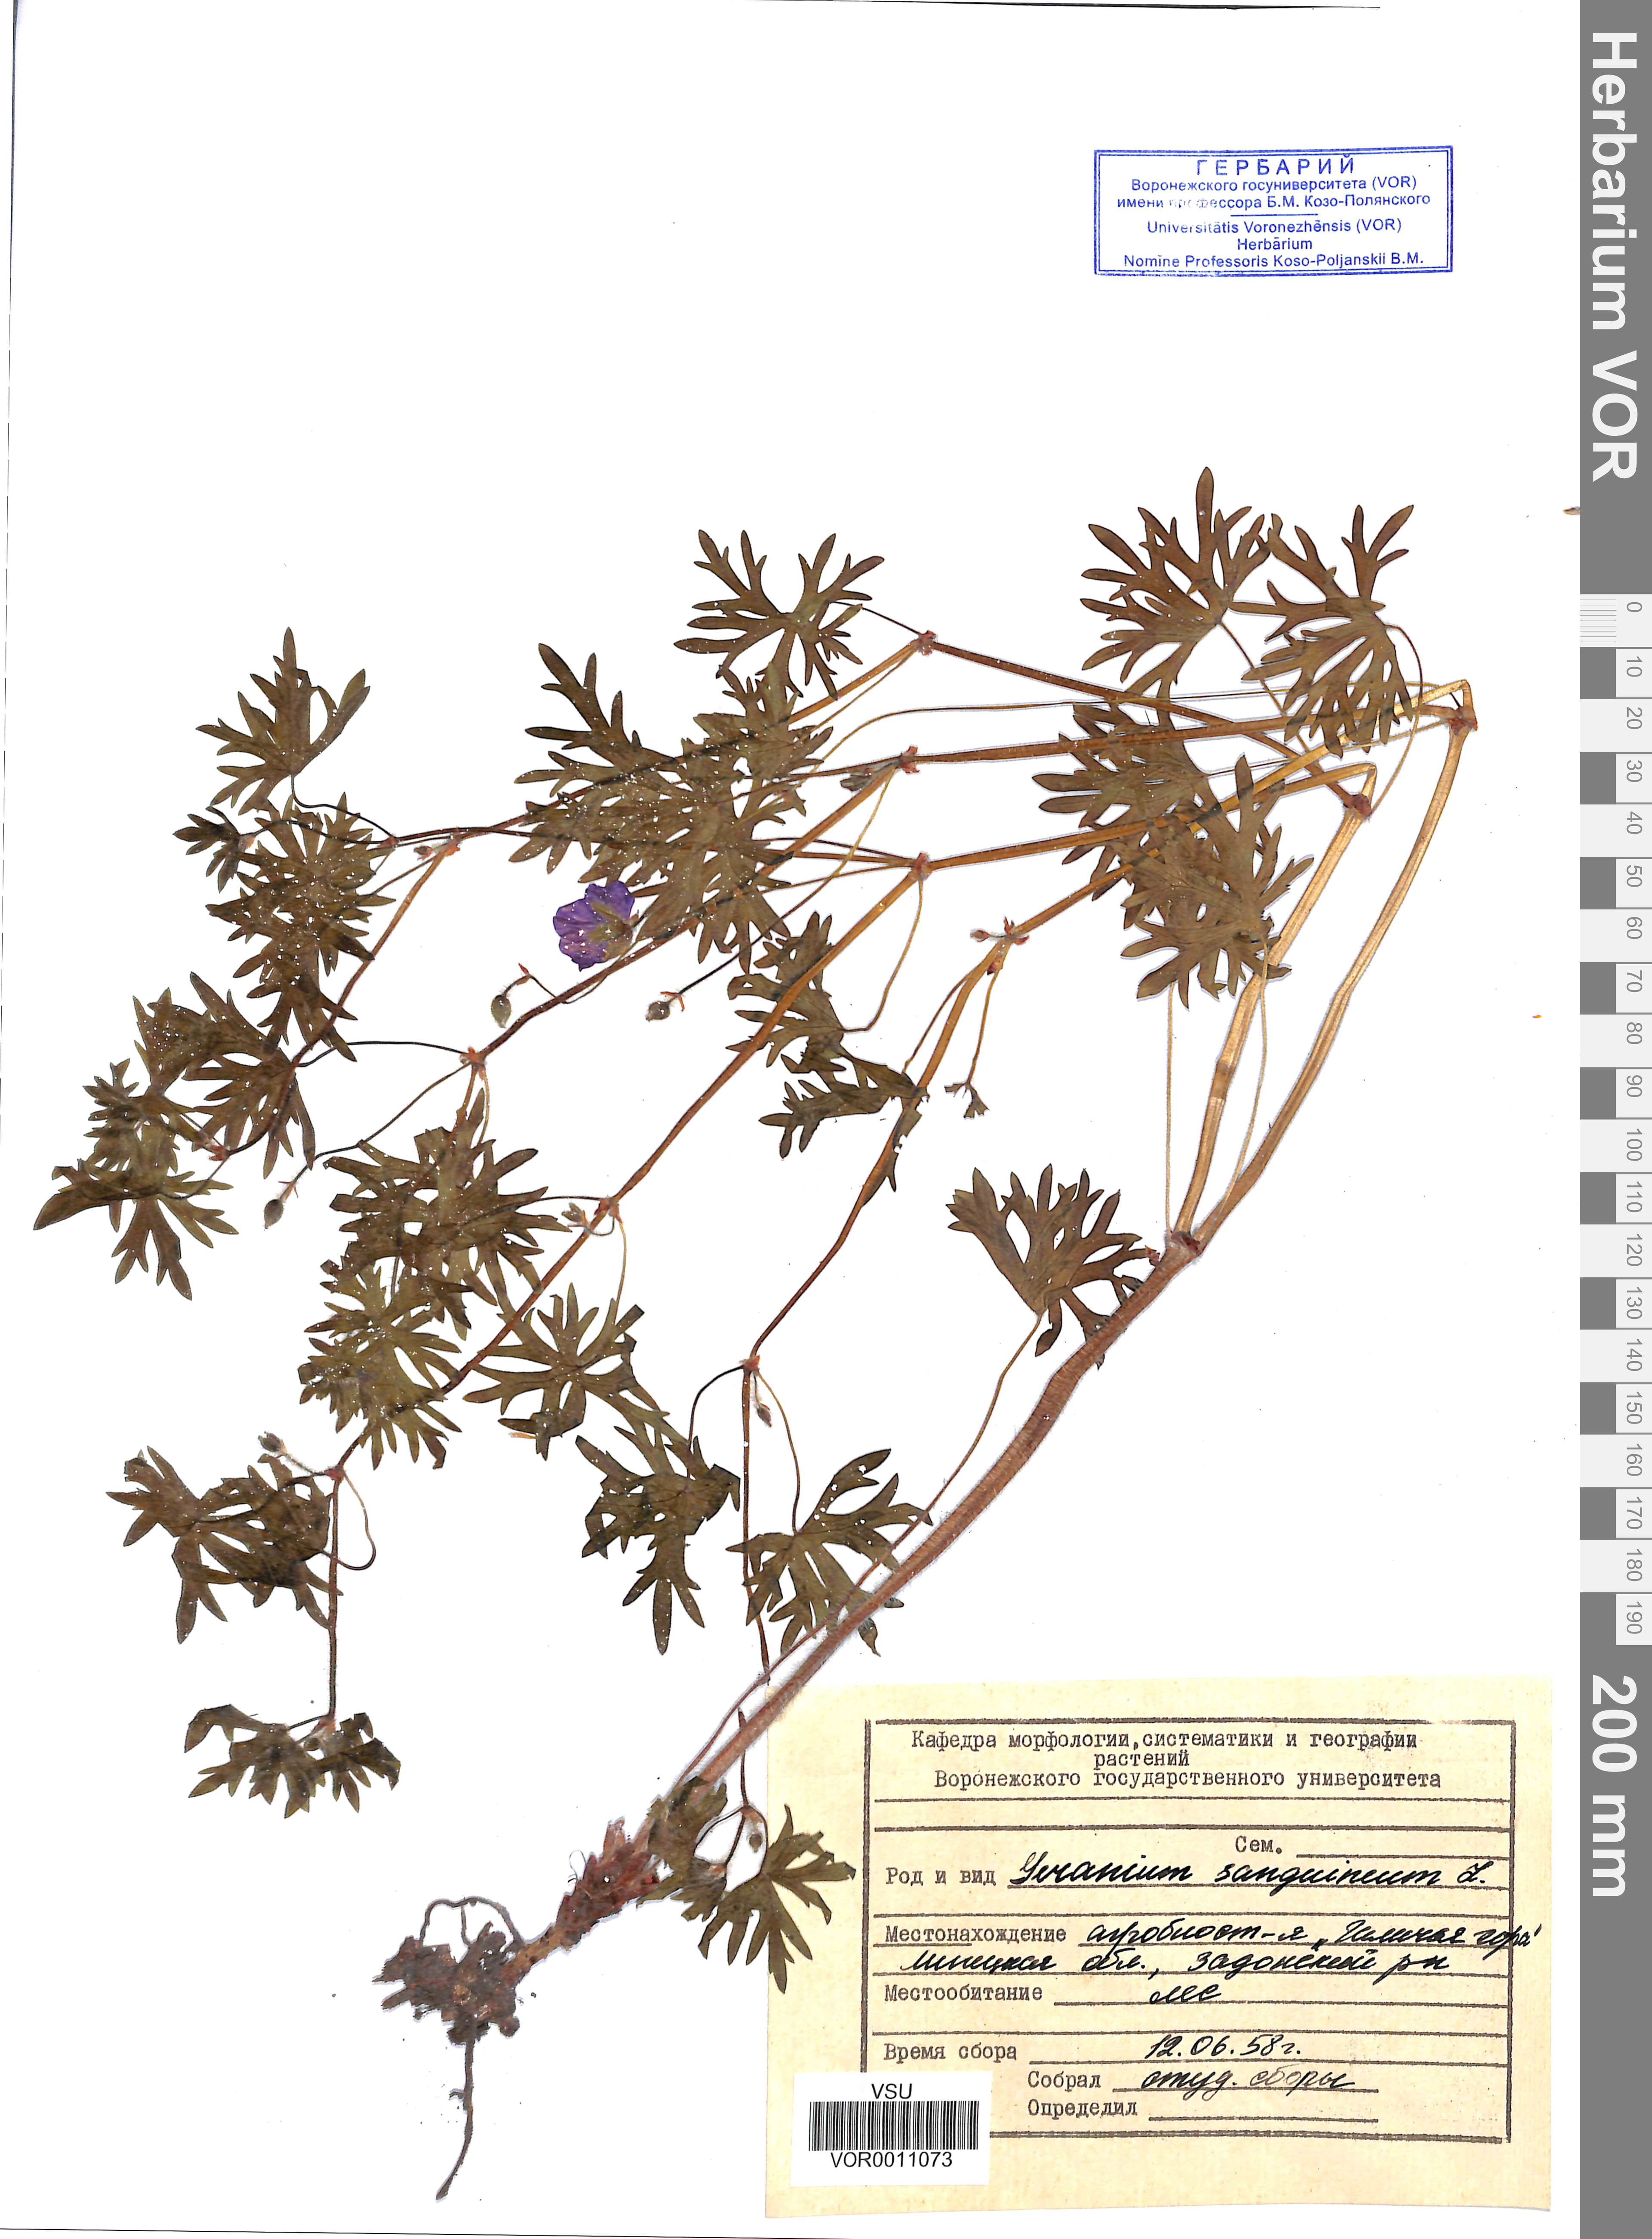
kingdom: Plantae
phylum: Tracheophyta
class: Magnoliopsida
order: Geraniales
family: Geraniaceae
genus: Geranium
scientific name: Geranium sanguineum
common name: Bloody crane's-bill
